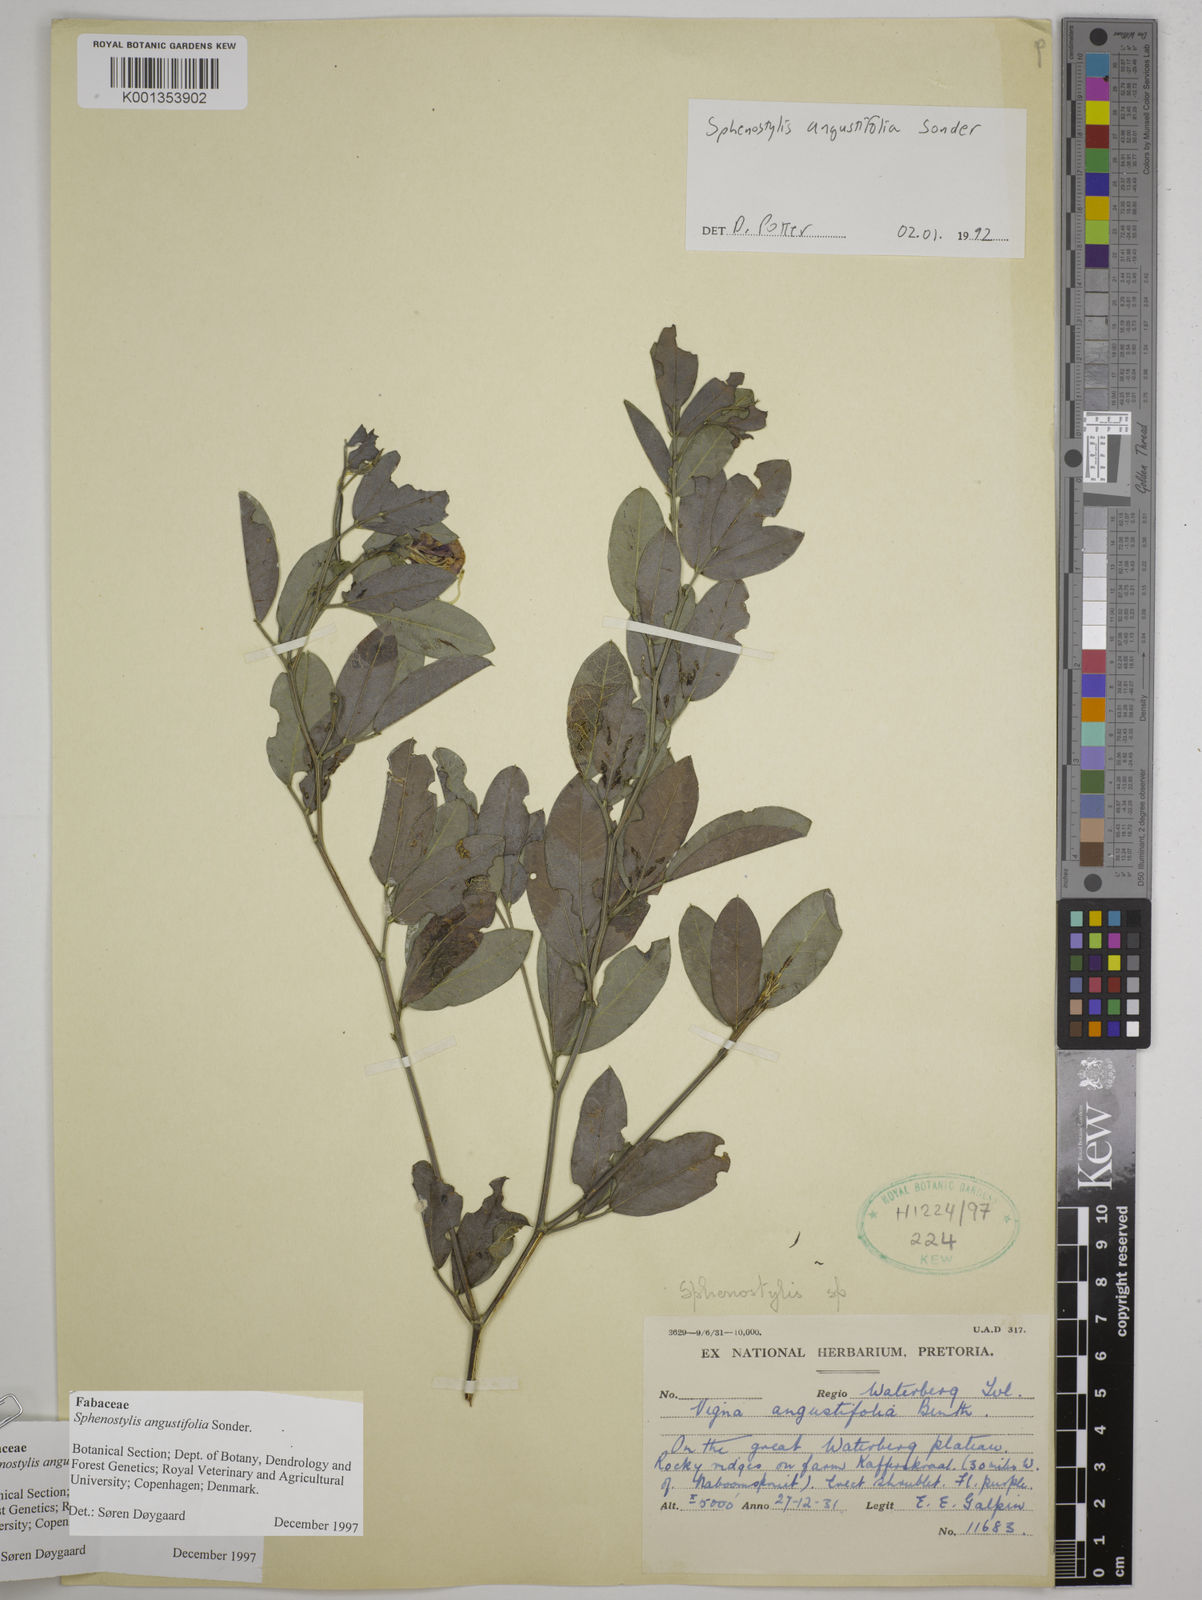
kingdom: Plantae
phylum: Tracheophyta
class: Magnoliopsida
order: Fabales
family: Fabaceae
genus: Sphenostylis
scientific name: Sphenostylis angustifolia
